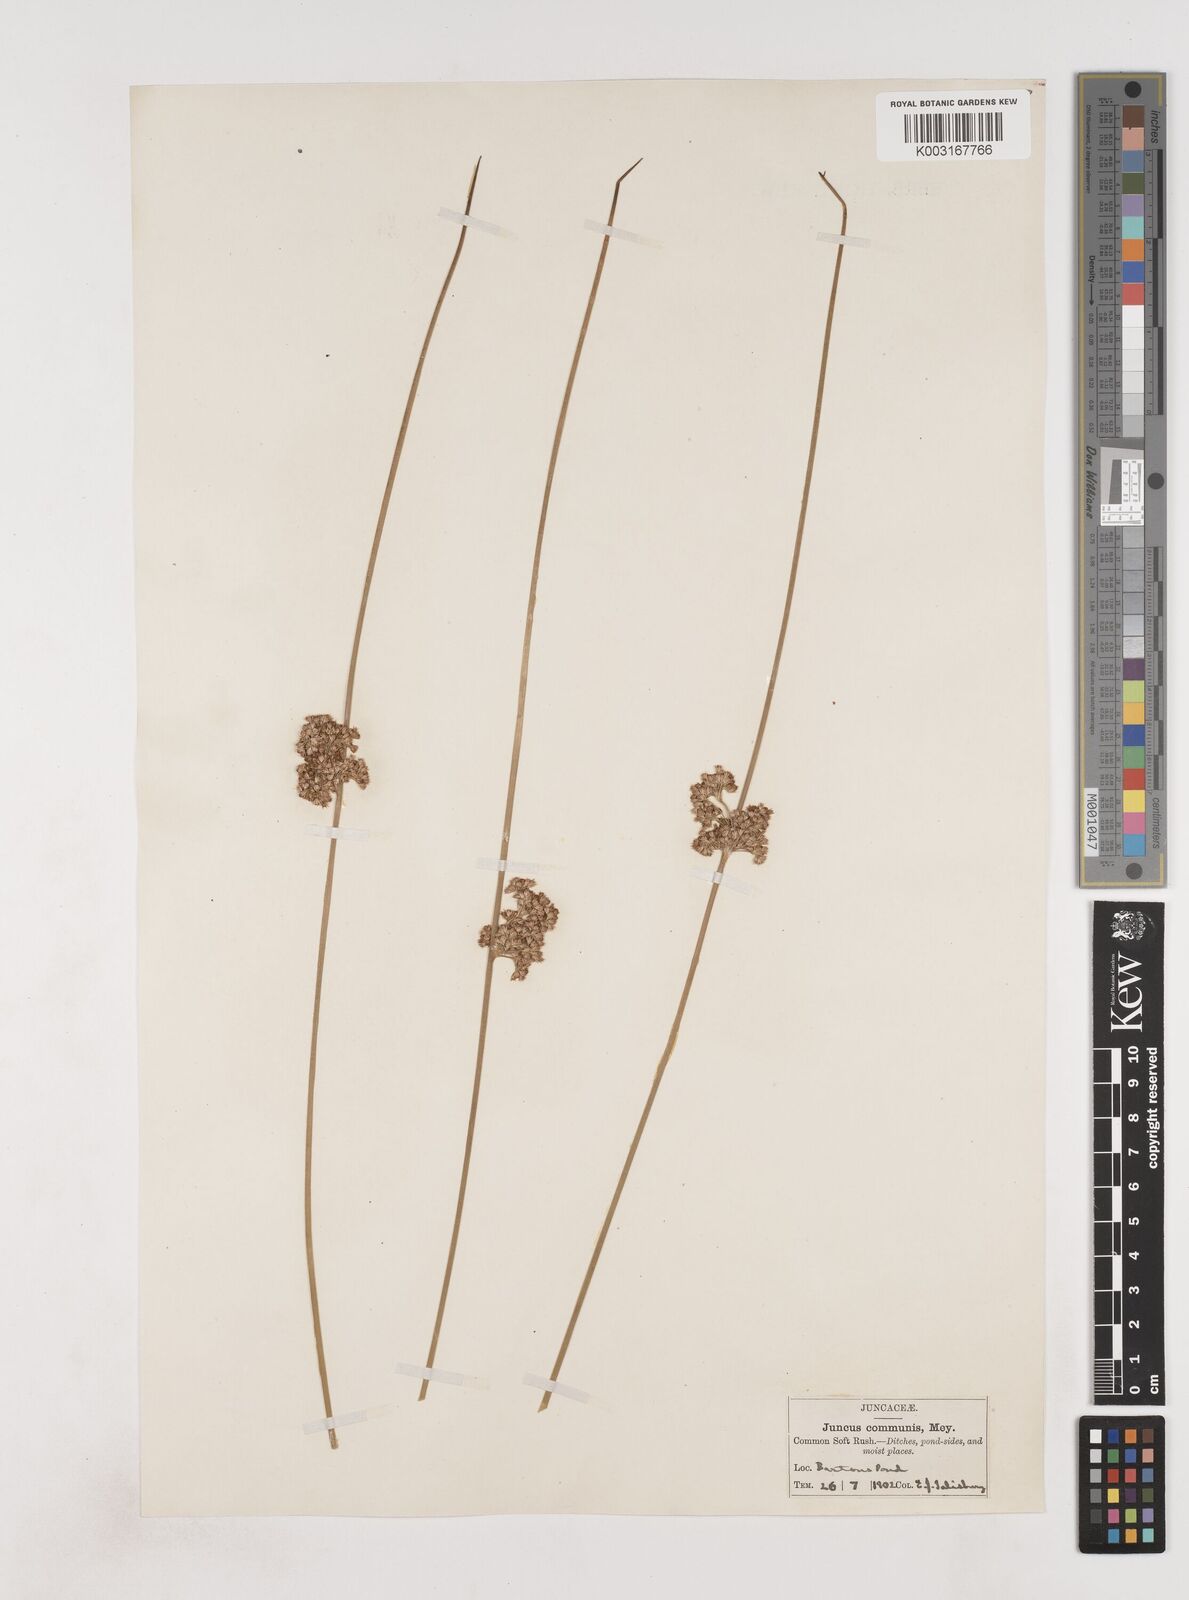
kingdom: Plantae
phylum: Tracheophyta
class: Liliopsida
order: Poales
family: Juncaceae
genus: Juncus
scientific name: Juncus effusus
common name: Soft rush
